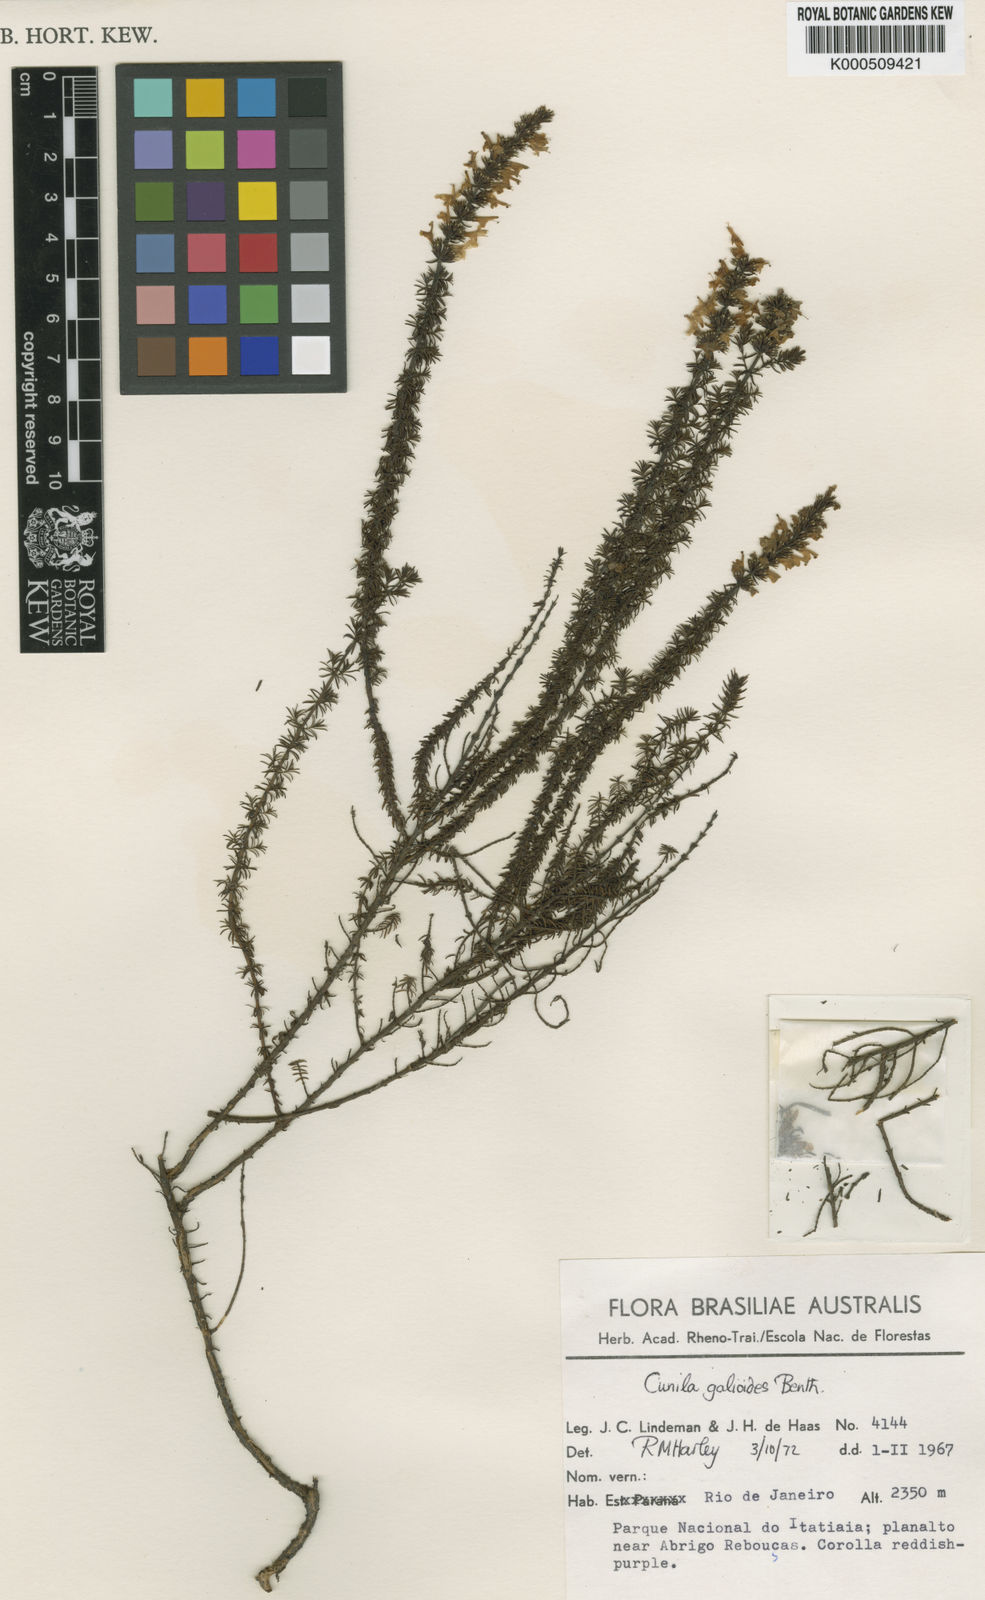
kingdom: Plantae
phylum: Tracheophyta
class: Magnoliopsida
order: Lamiales
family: Lamiaceae
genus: Cunila
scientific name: Cunila galioides
